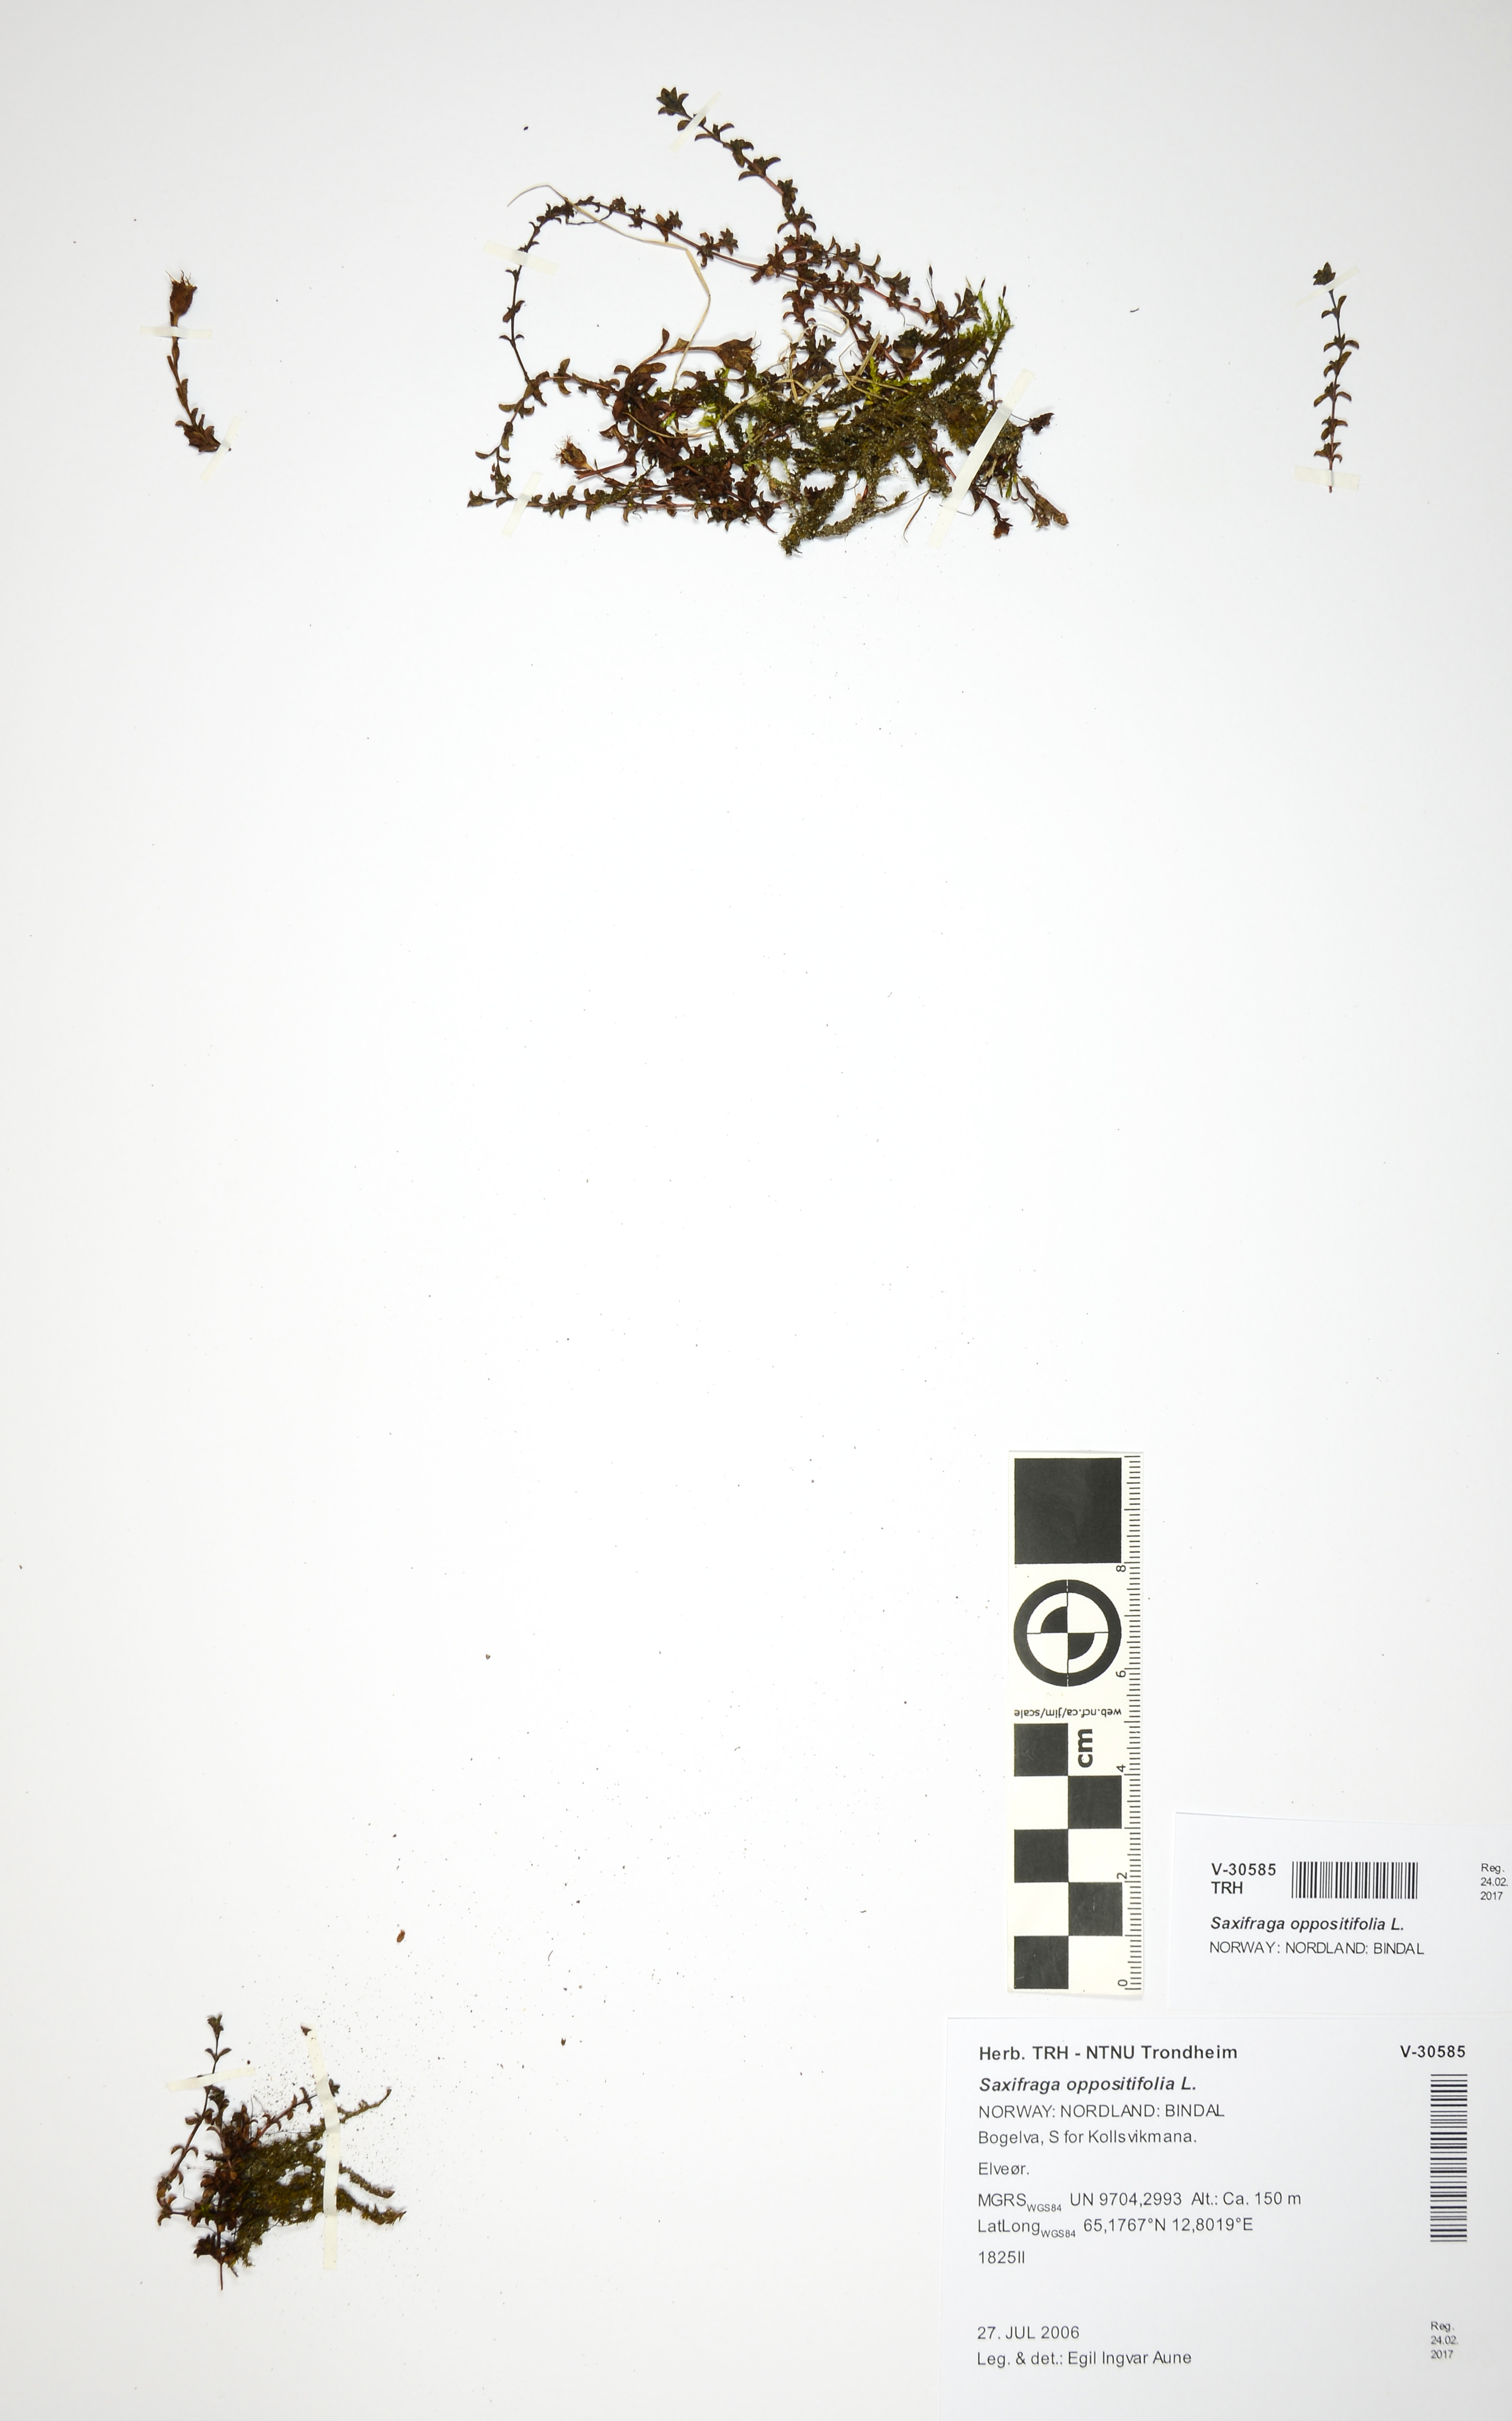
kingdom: Plantae
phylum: Tracheophyta
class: Magnoliopsida
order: Saxifragales
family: Saxifragaceae
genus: Saxifraga
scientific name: Saxifraga oppositifolia
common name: Purple saxifrage
